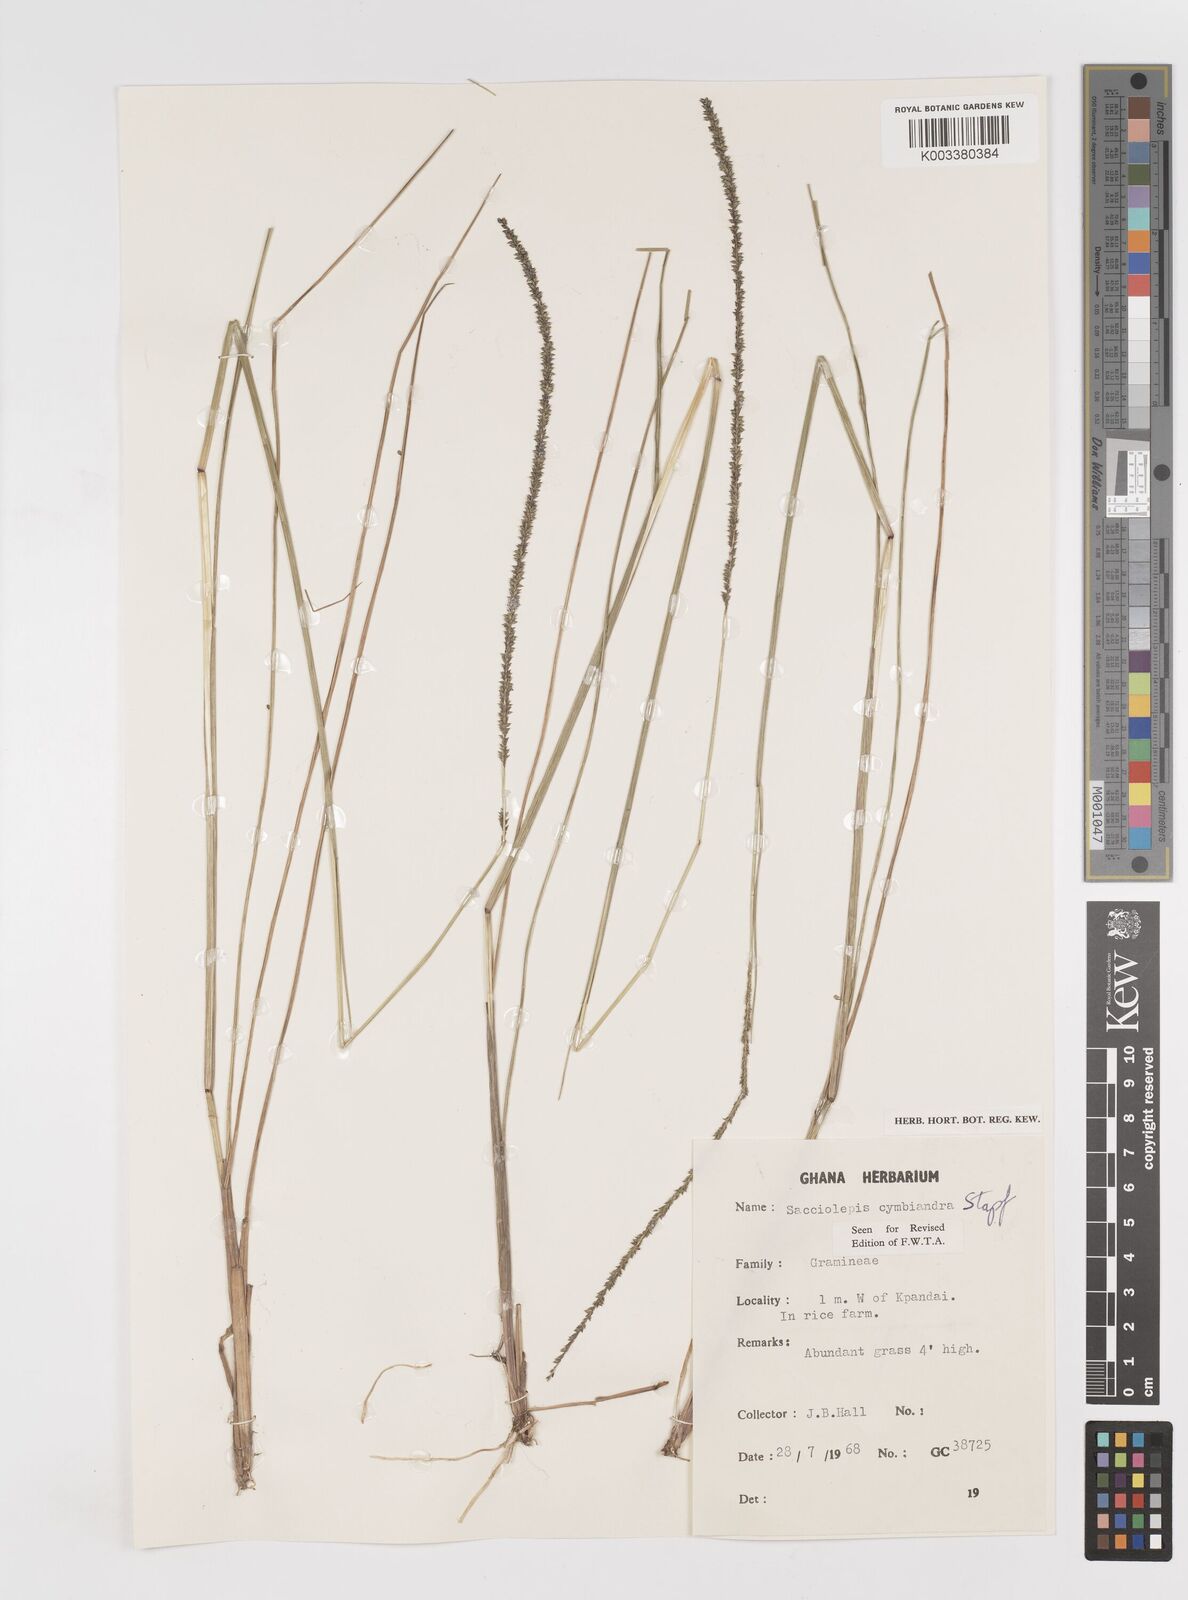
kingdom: Plantae
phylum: Tracheophyta
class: Liliopsida
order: Poales
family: Poaceae
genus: Sacciolepis
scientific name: Sacciolepis cymbiandra
